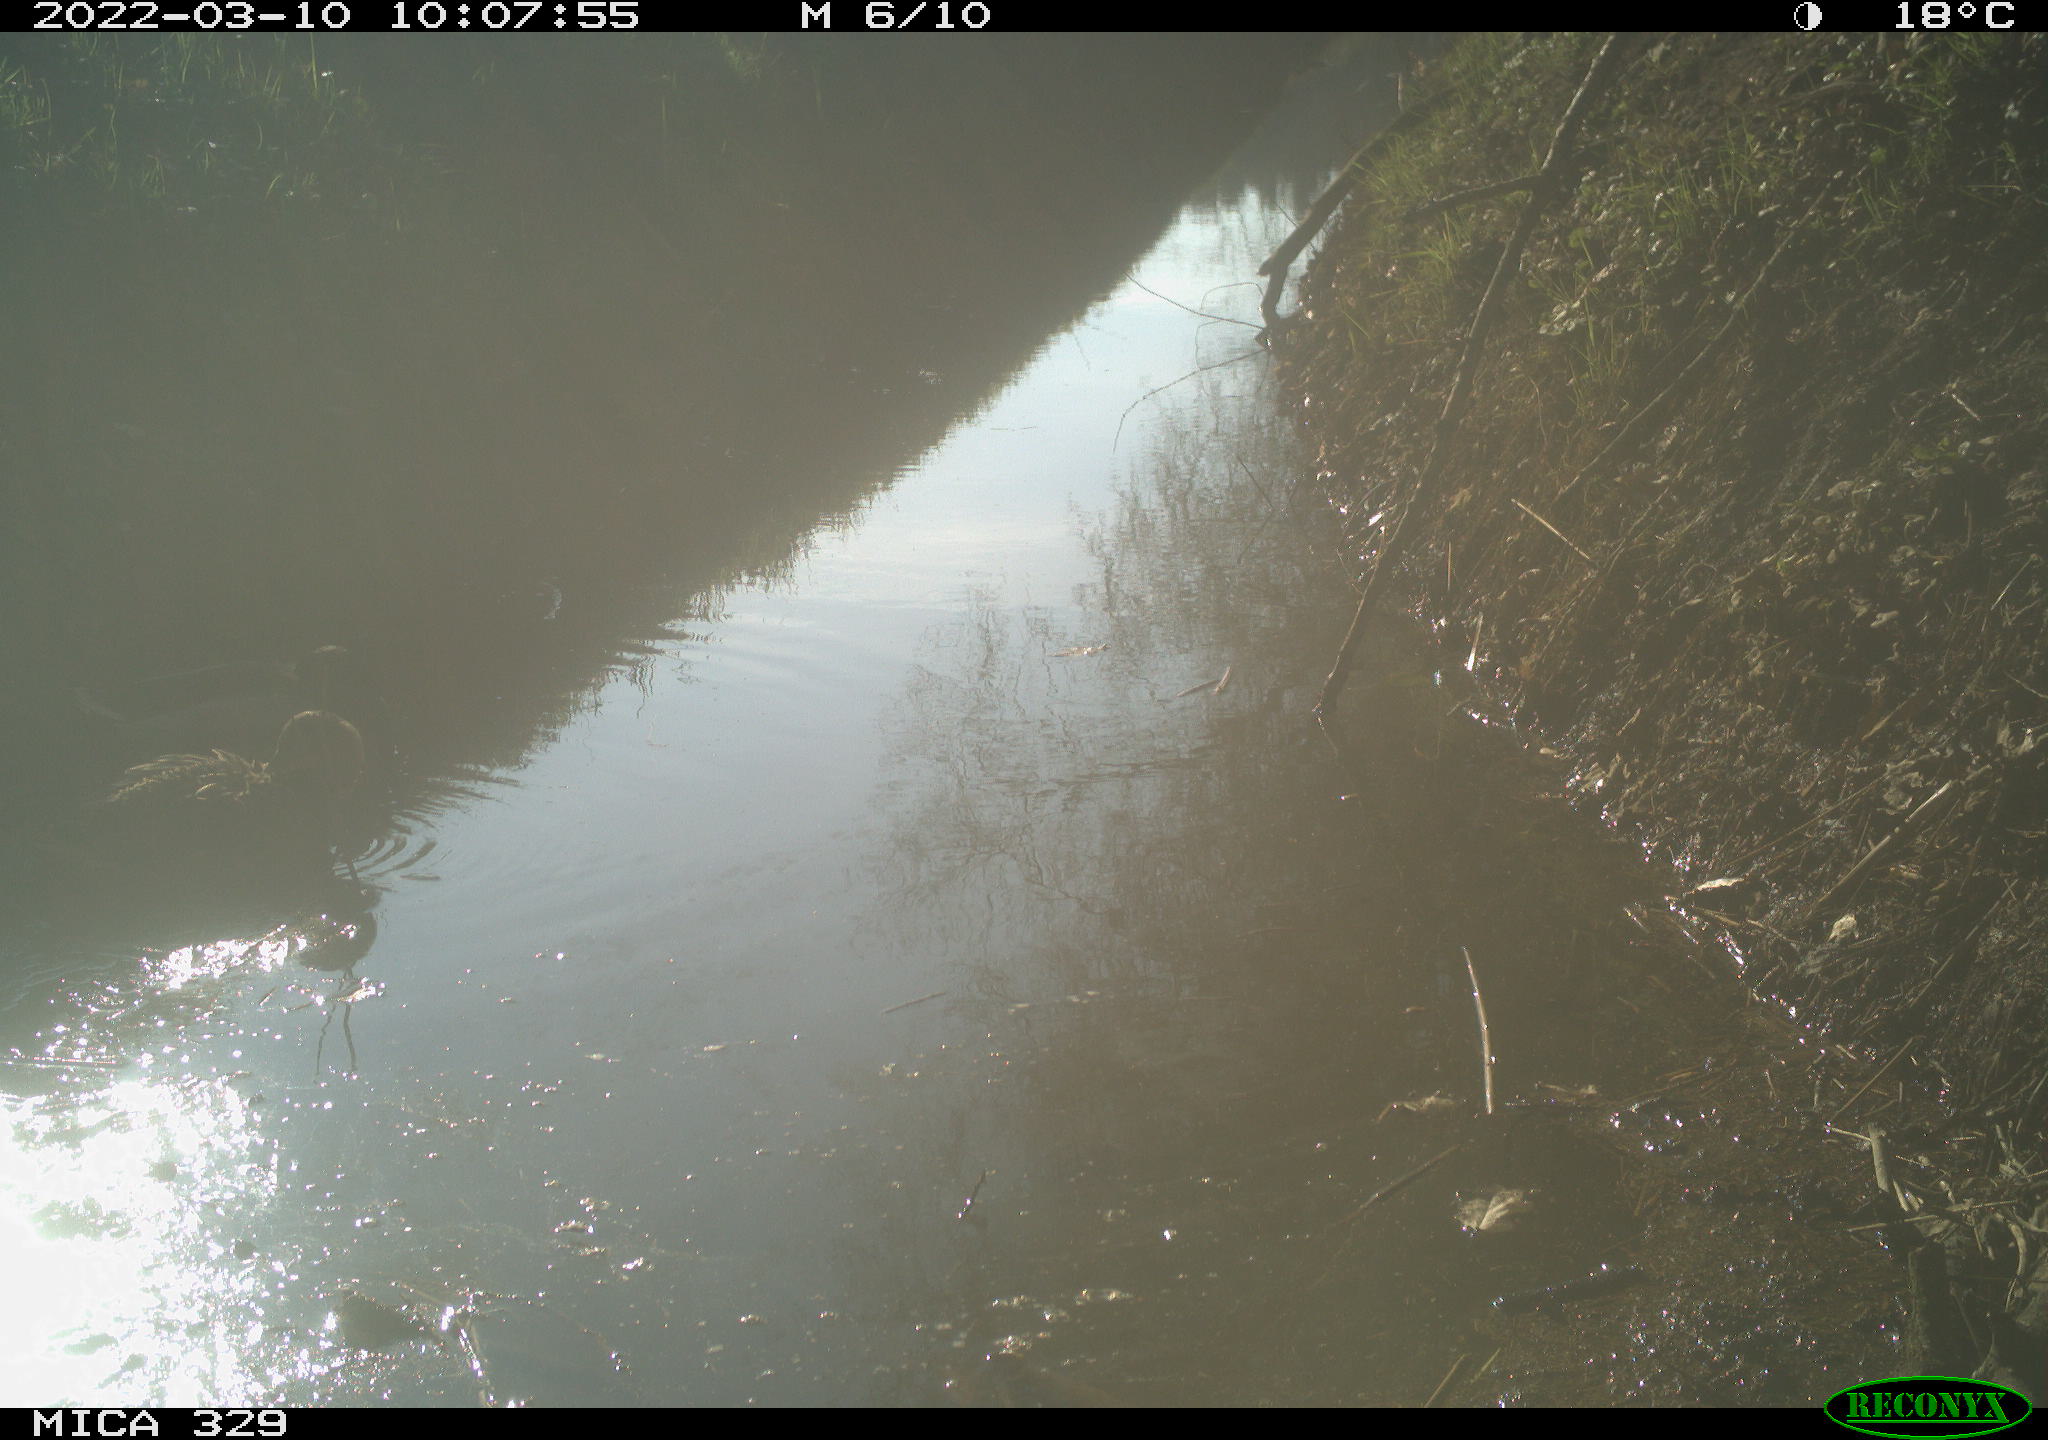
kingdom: Animalia
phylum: Chordata
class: Aves
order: Anseriformes
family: Anatidae
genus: Anas
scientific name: Anas platyrhynchos
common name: Mallard
